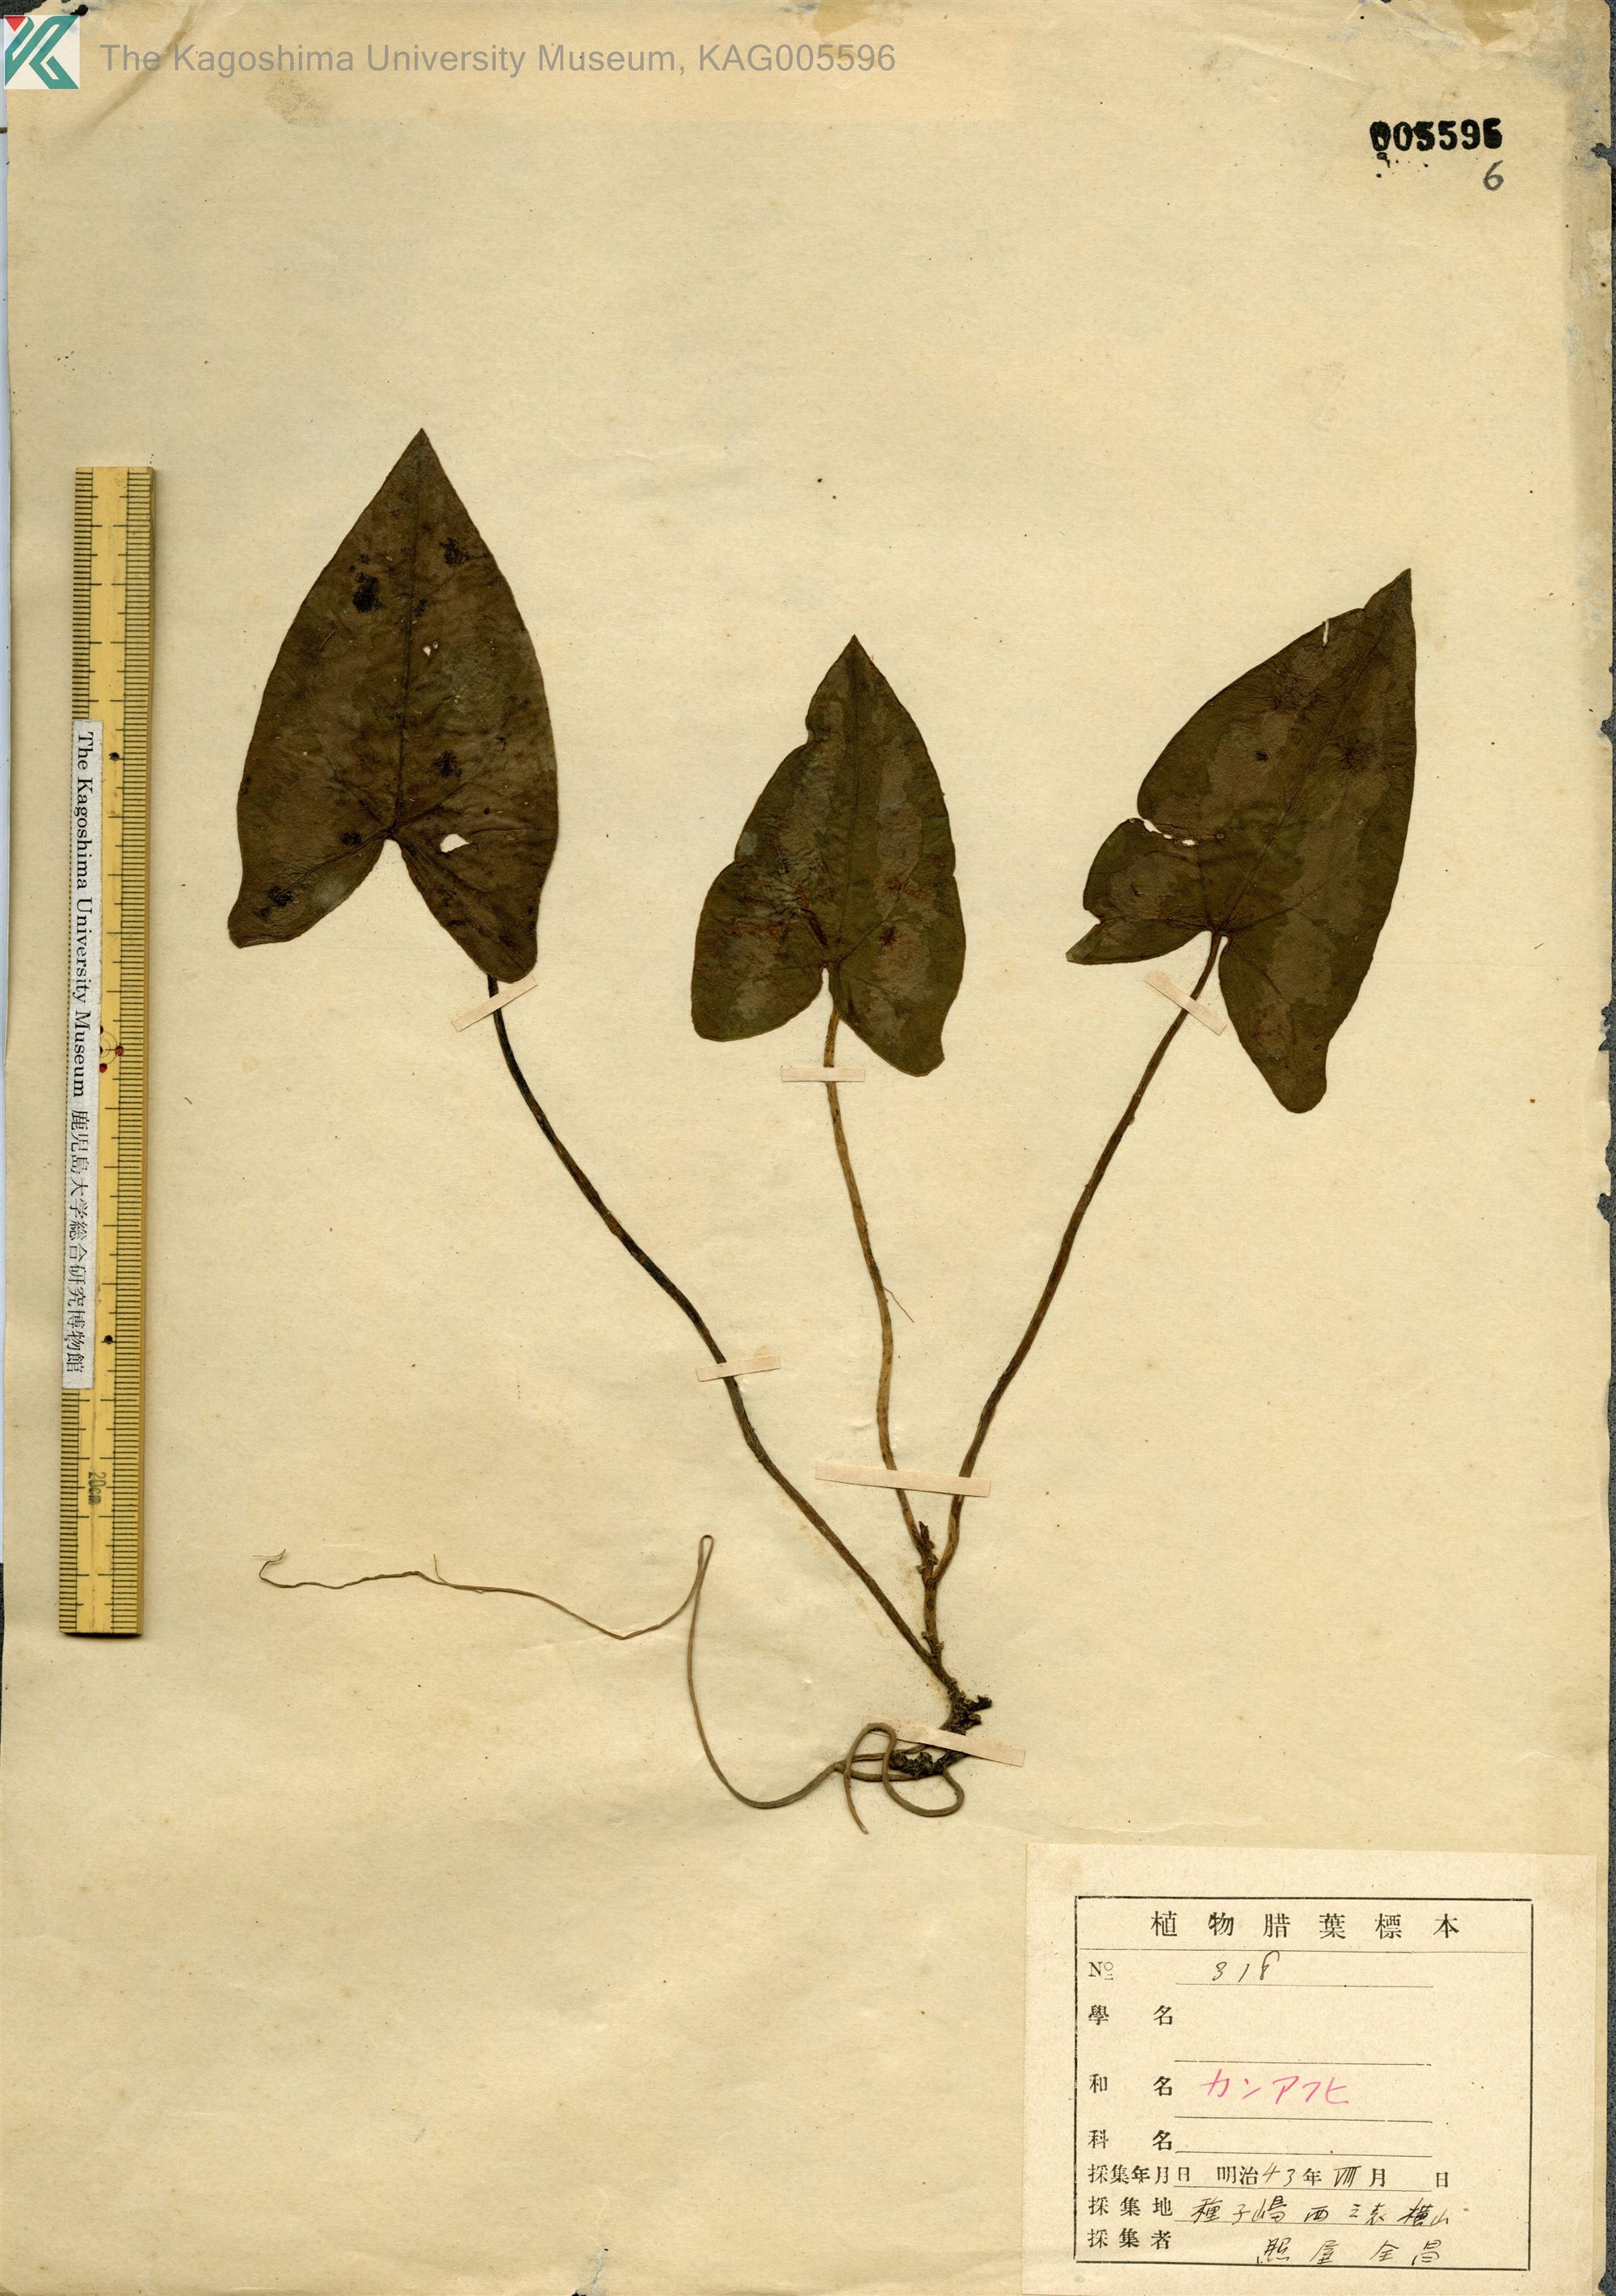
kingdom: Plantae
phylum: Tracheophyta
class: Magnoliopsida
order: Piperales
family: Aristolochiaceae
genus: Asarum
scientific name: Asarum kumageanum
